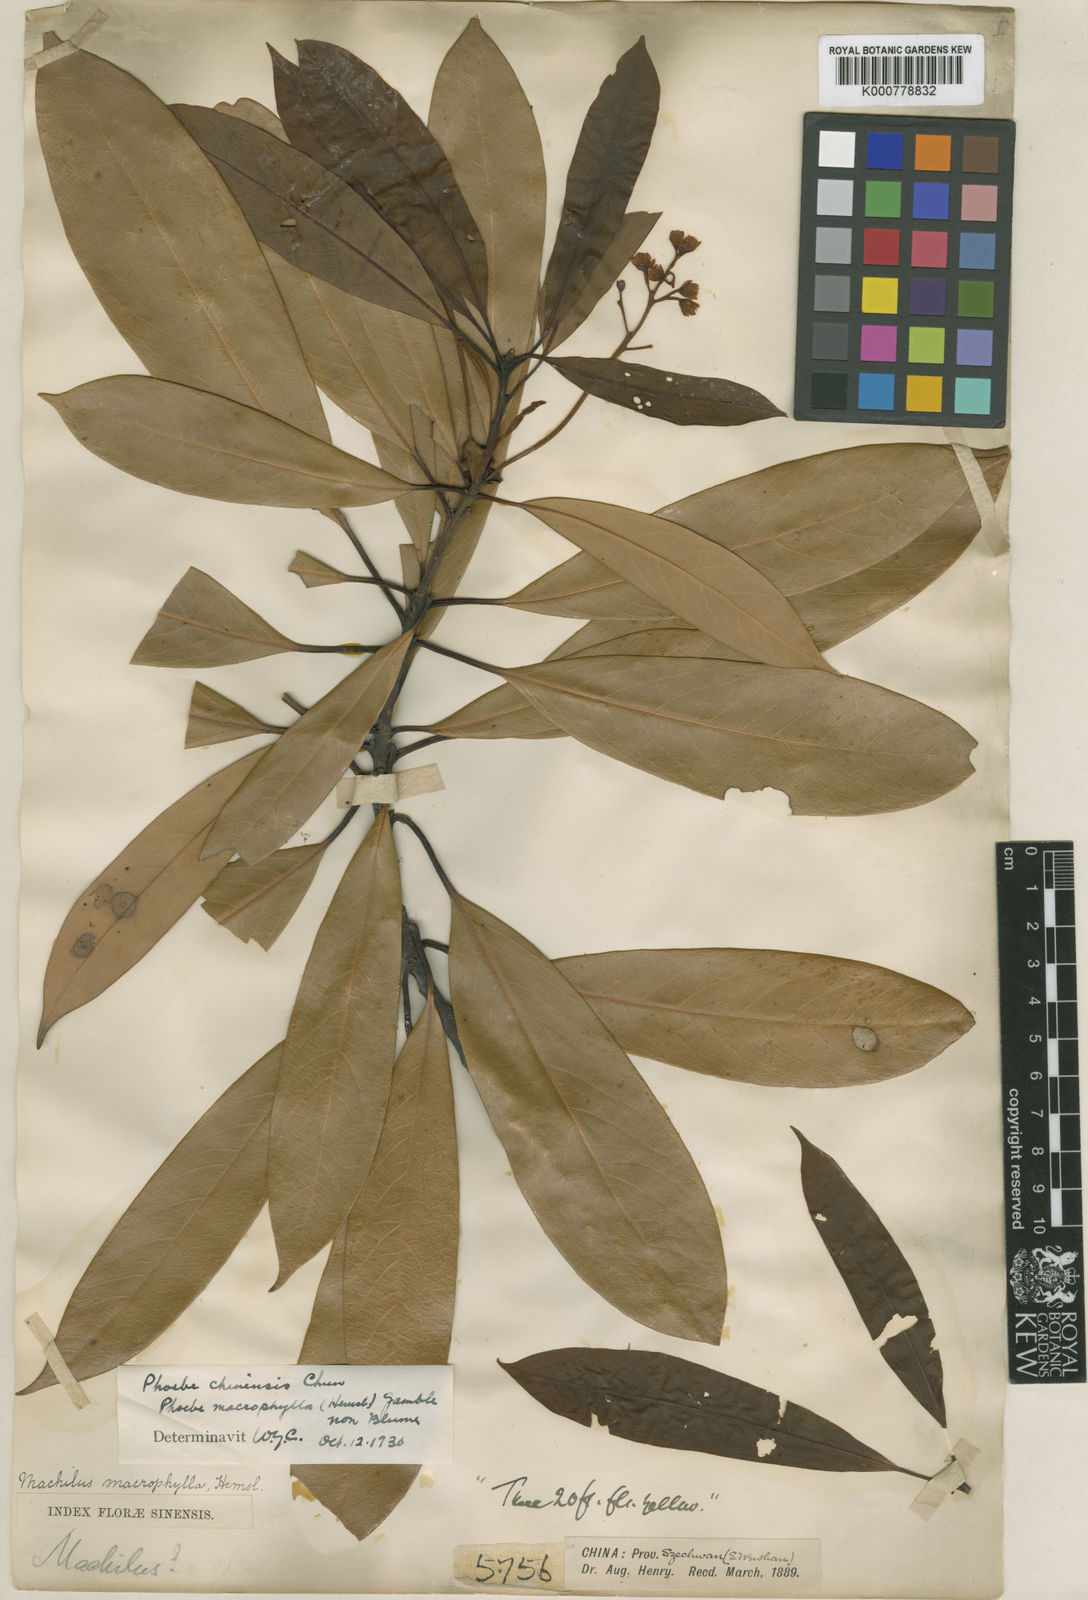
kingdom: Plantae
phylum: Tracheophyta
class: Magnoliopsida
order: Laurales
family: Lauraceae
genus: Machilus
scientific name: Machilus montana
